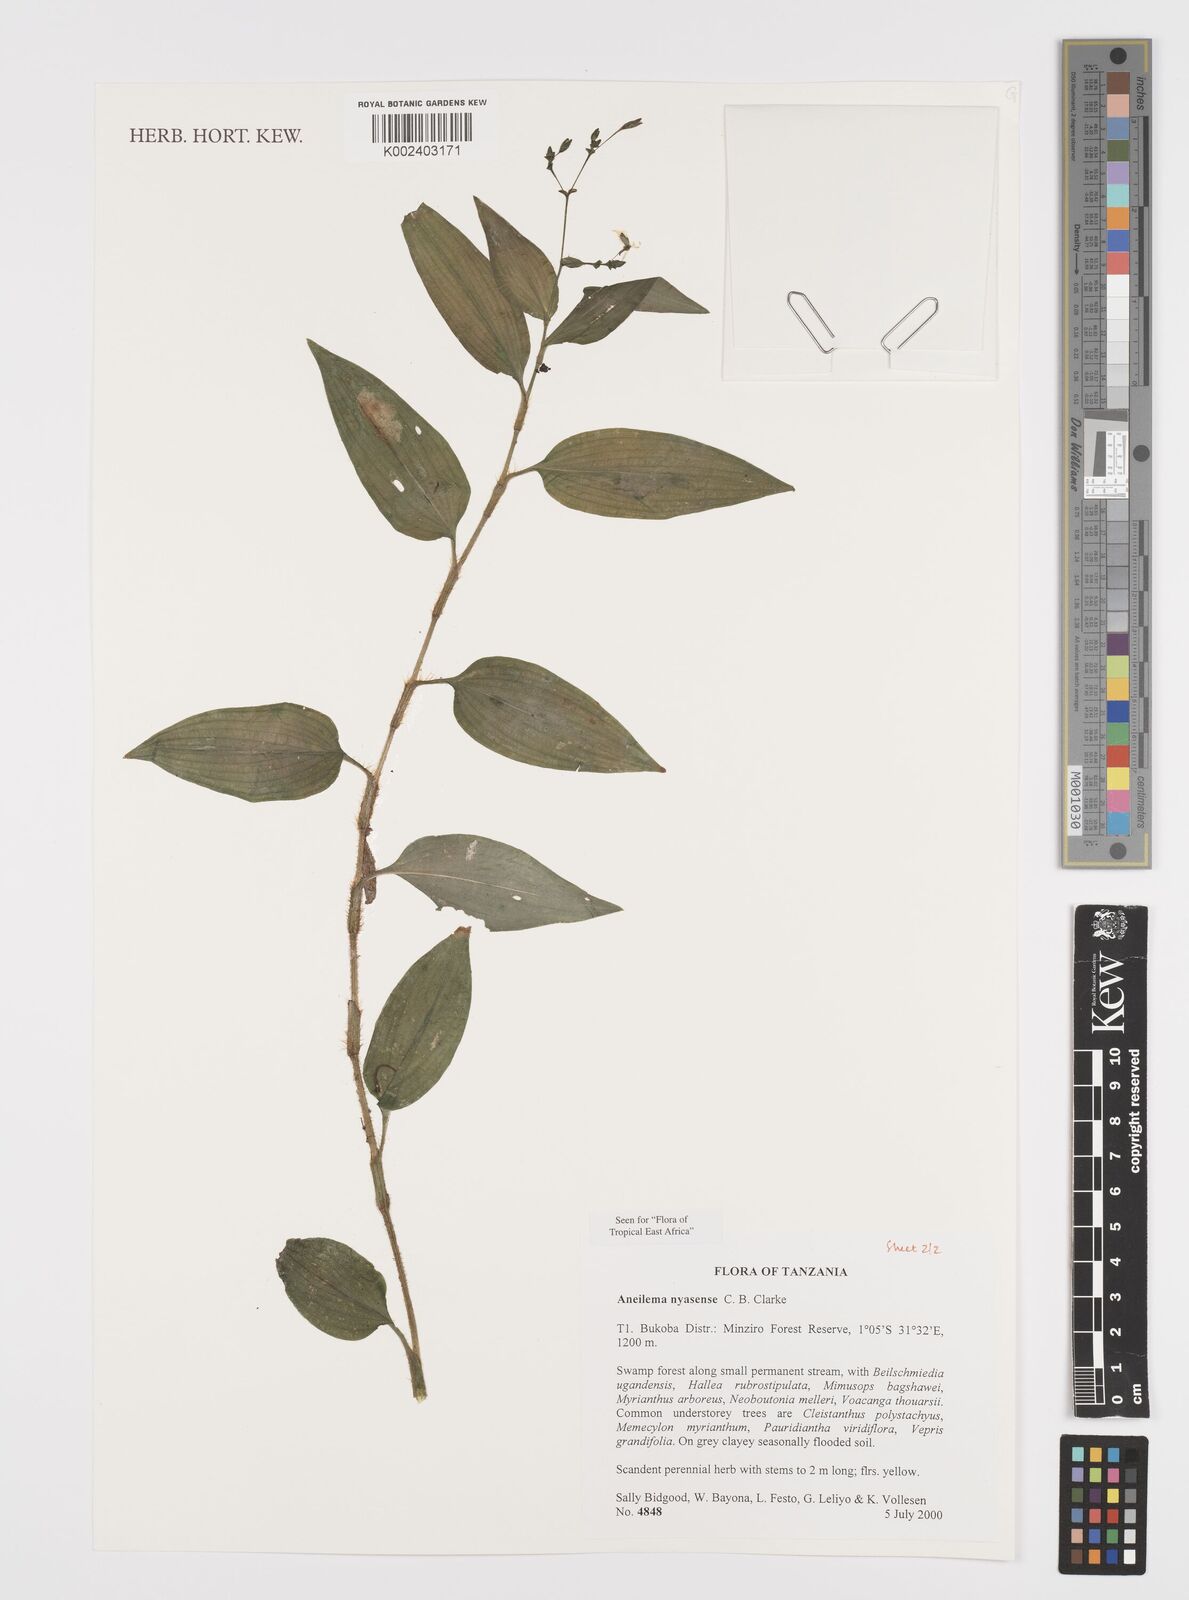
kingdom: Plantae
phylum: Tracheophyta
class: Liliopsida
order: Commelinales
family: Commelinaceae
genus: Aneilema
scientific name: Aneilema nyasense
